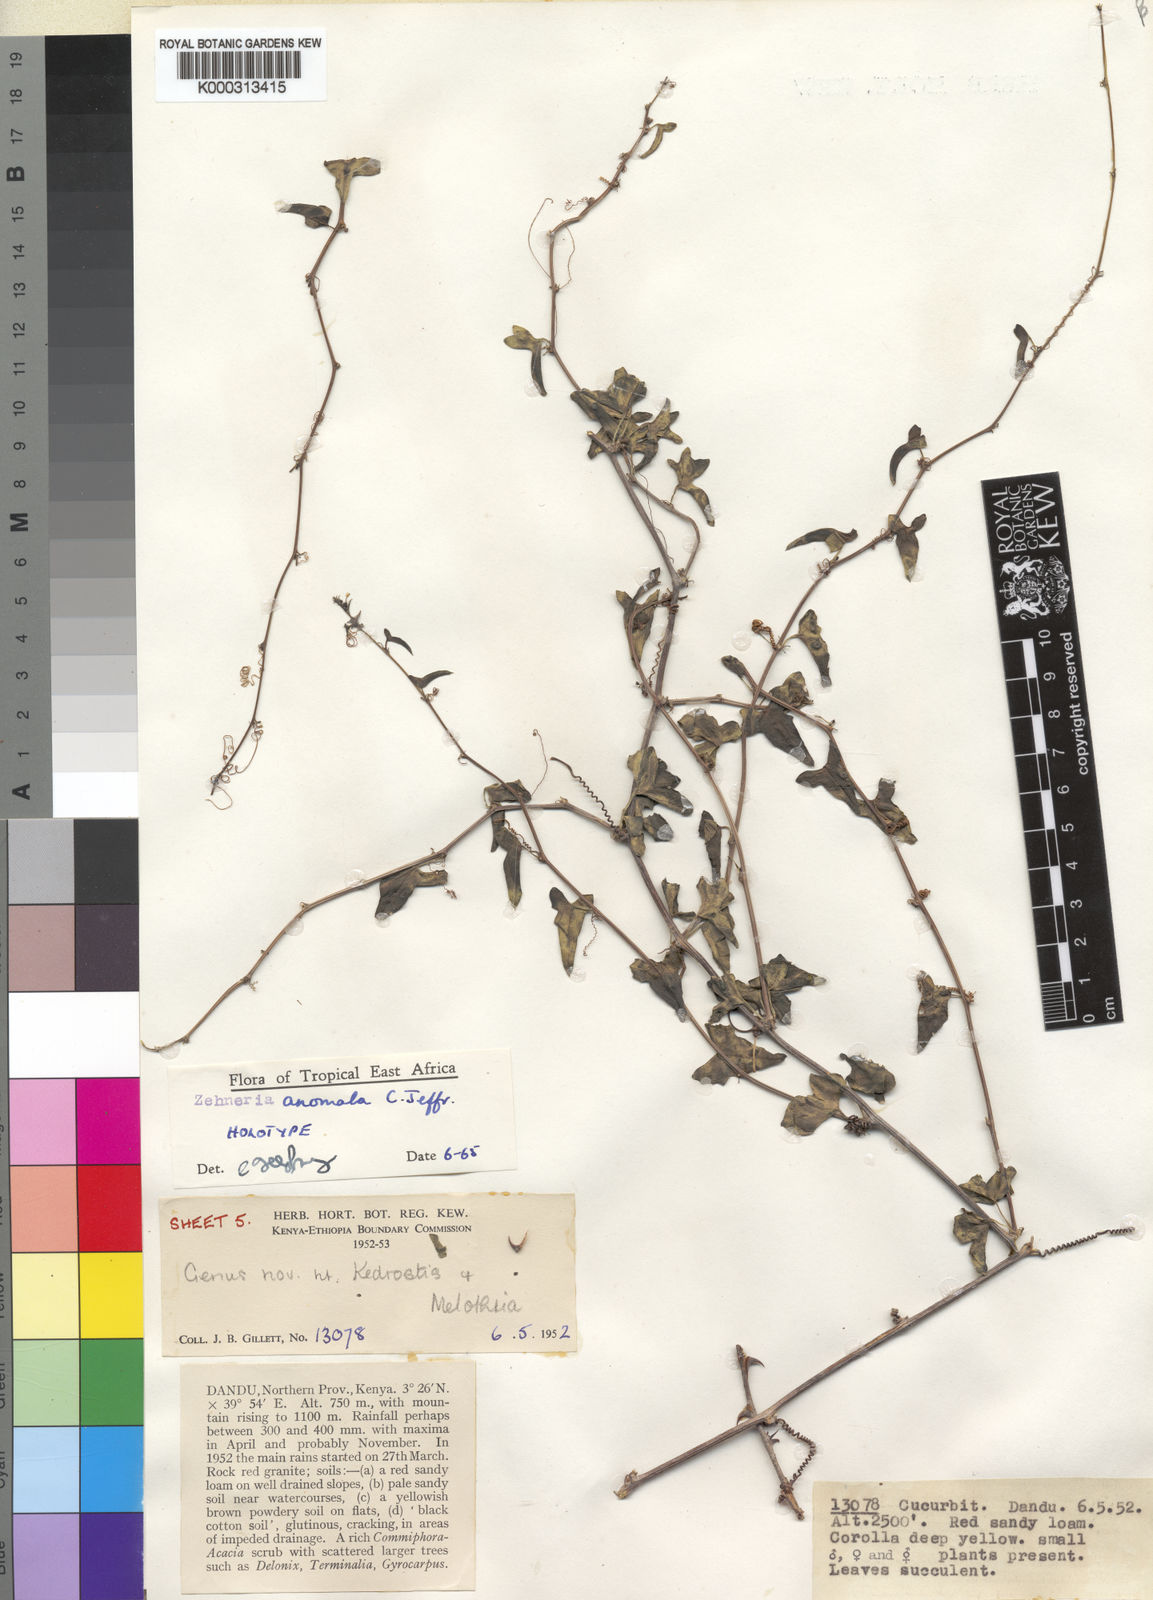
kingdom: Plantae
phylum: Tracheophyta
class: Magnoliopsida
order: Cucurbitales
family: Cucurbitaceae
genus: Zehneria
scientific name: Zehneria anomala
